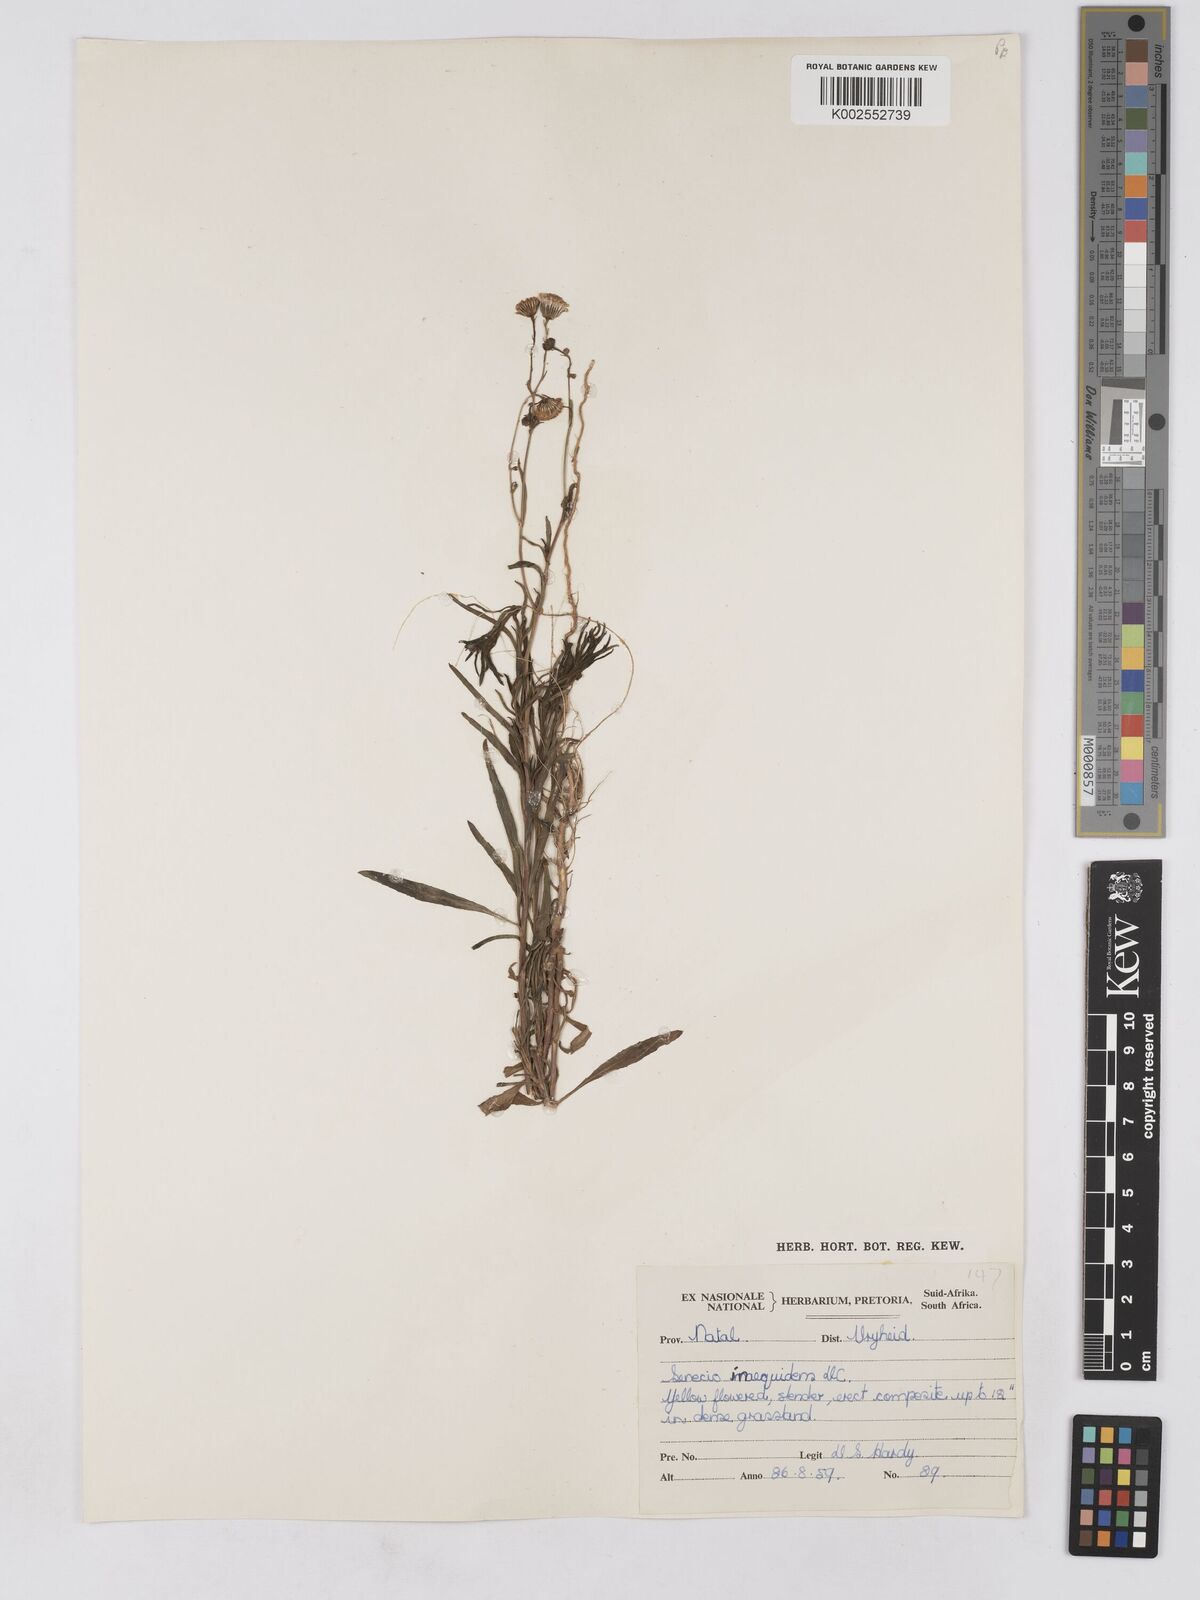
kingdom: Plantae
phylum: Tracheophyta
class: Magnoliopsida
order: Asterales
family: Asteraceae
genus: Senecio
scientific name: Senecio madagascariensis
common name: Madagascar ragwort
